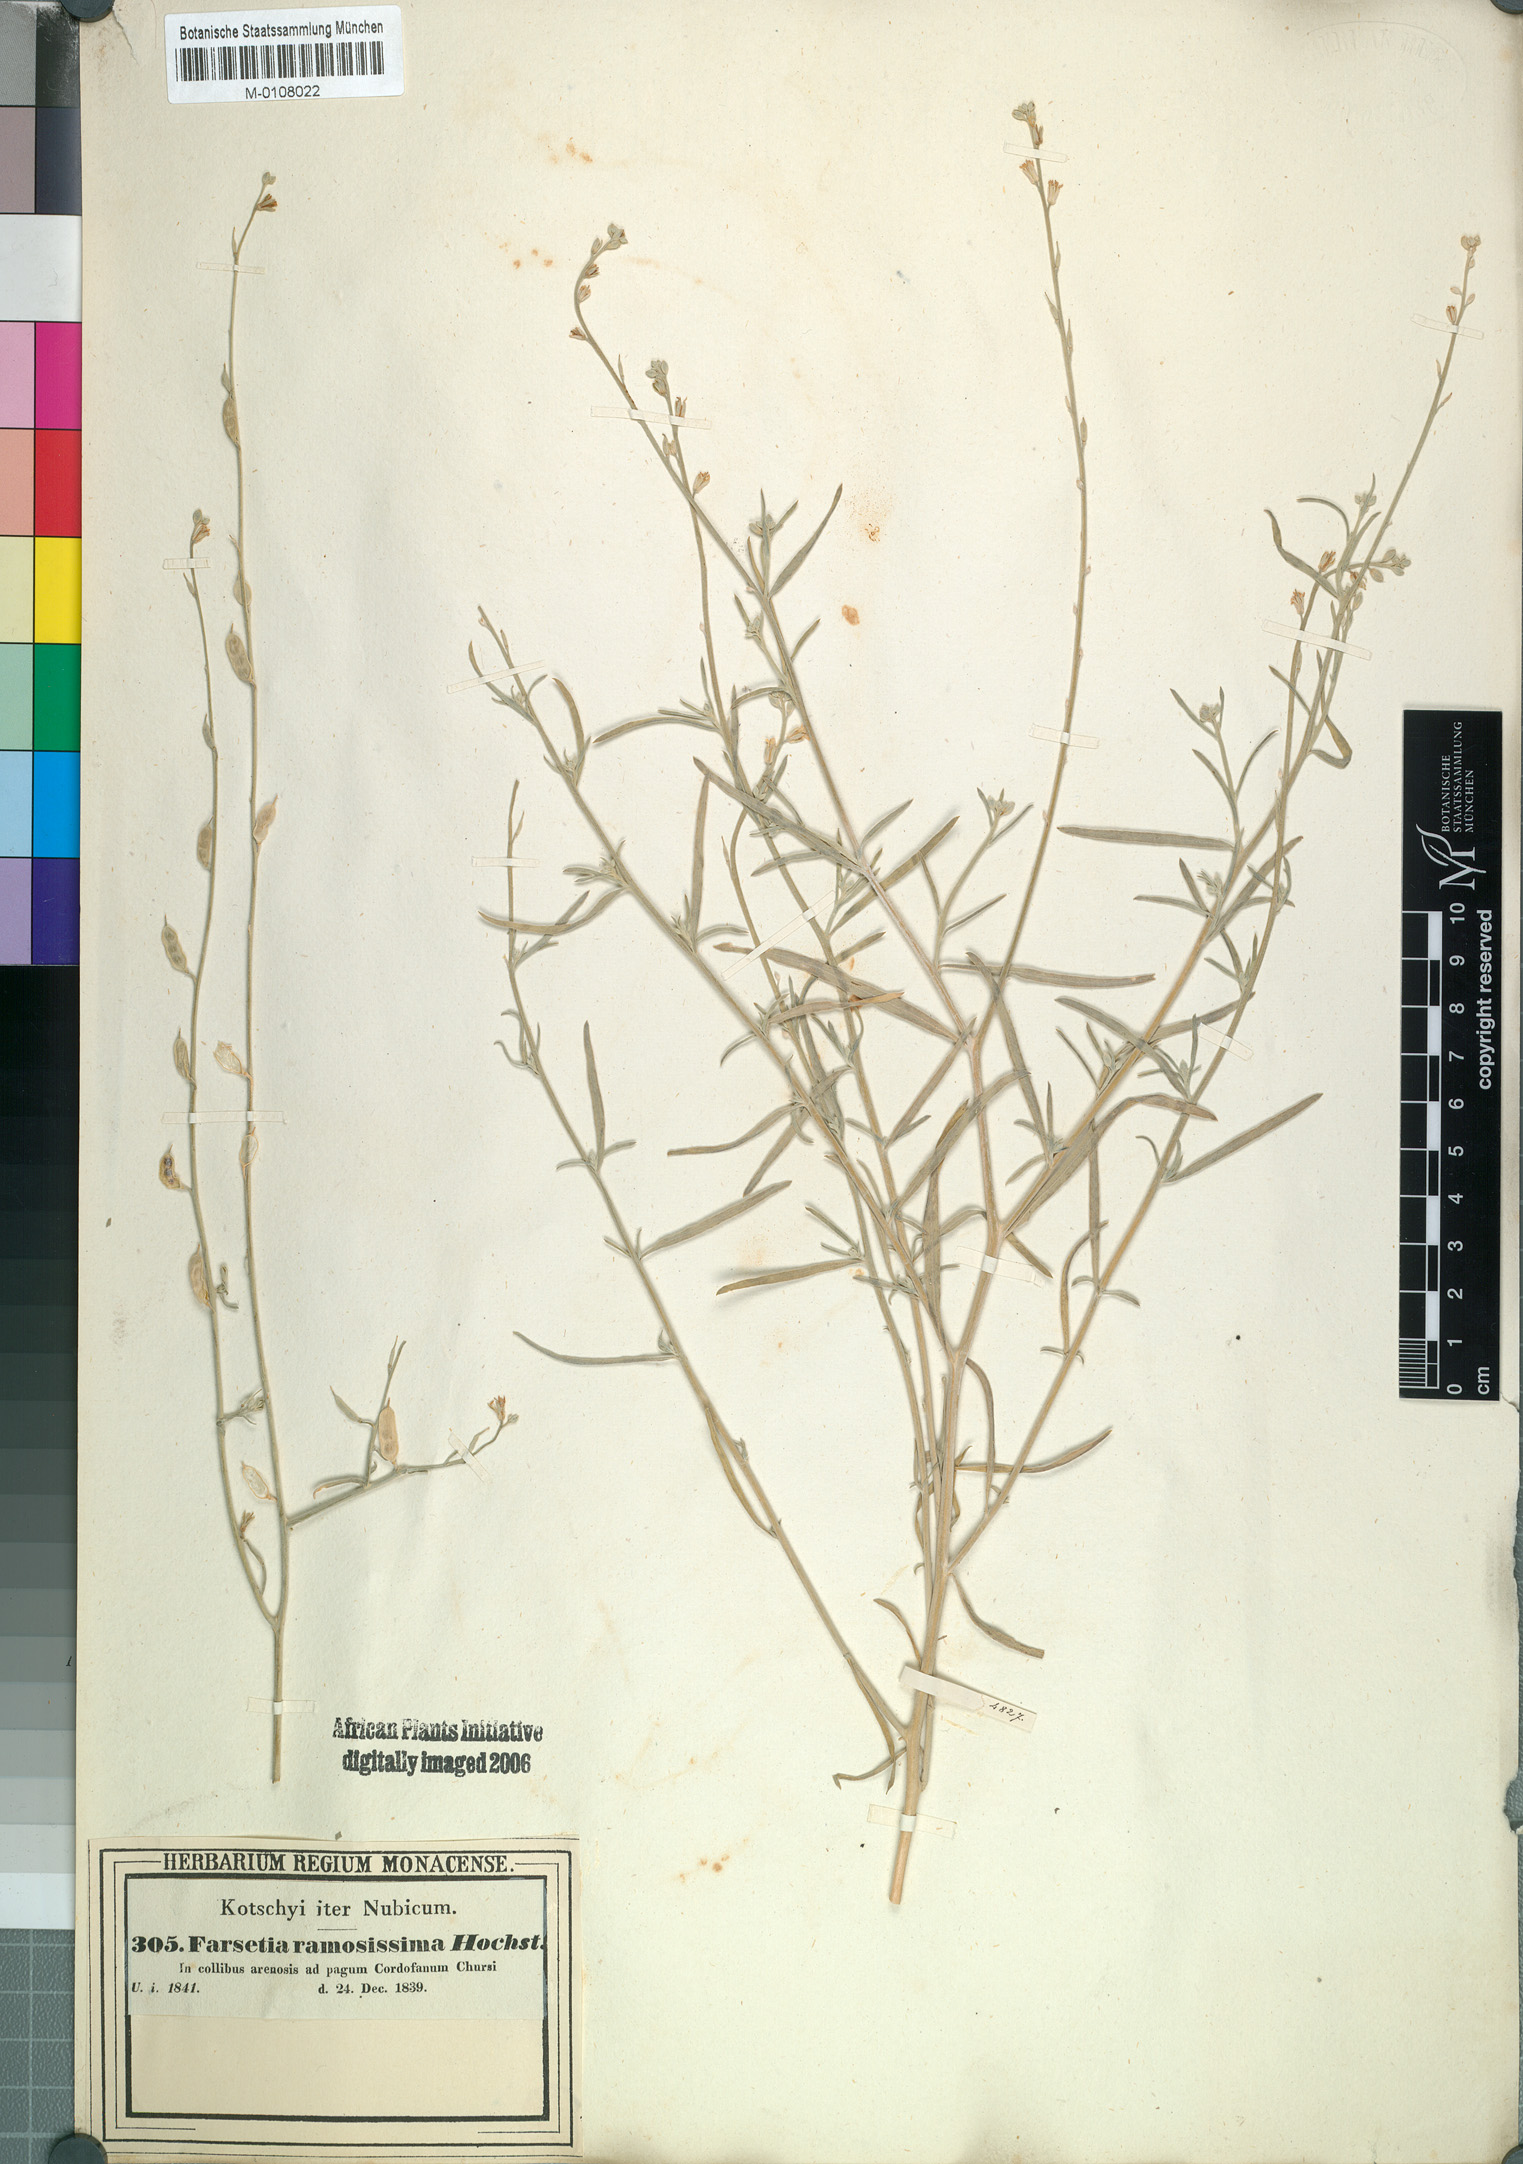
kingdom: Plantae
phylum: Tracheophyta
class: Magnoliopsida
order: Brassicales
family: Brassicaceae
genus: Farsetia
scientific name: Farsetia stylosa
